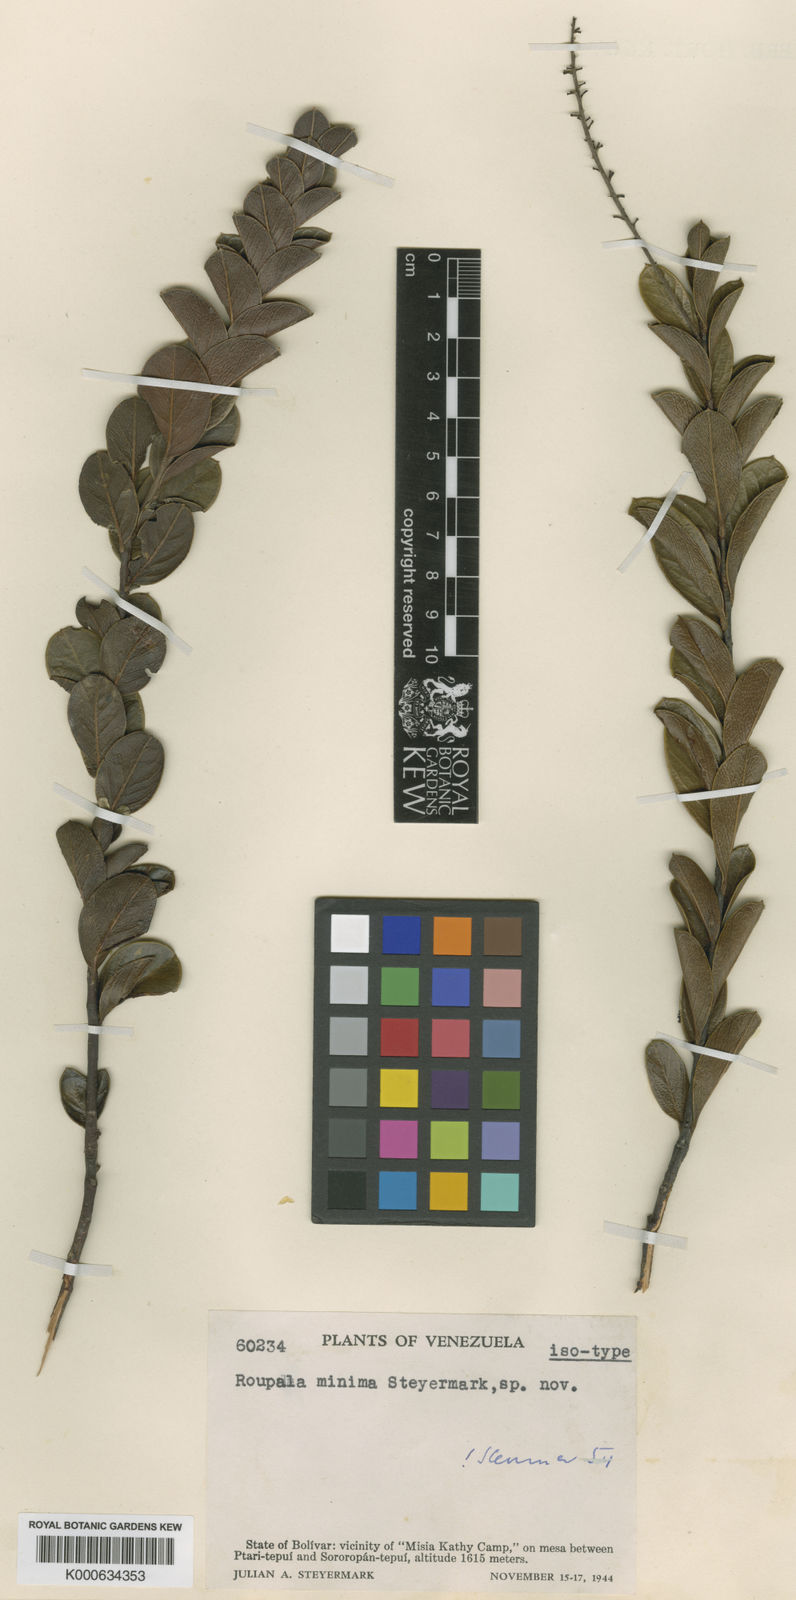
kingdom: Plantae
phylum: Tracheophyta
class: Magnoliopsida
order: Proteales
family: Proteaceae
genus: Roupala
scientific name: Roupala minima
